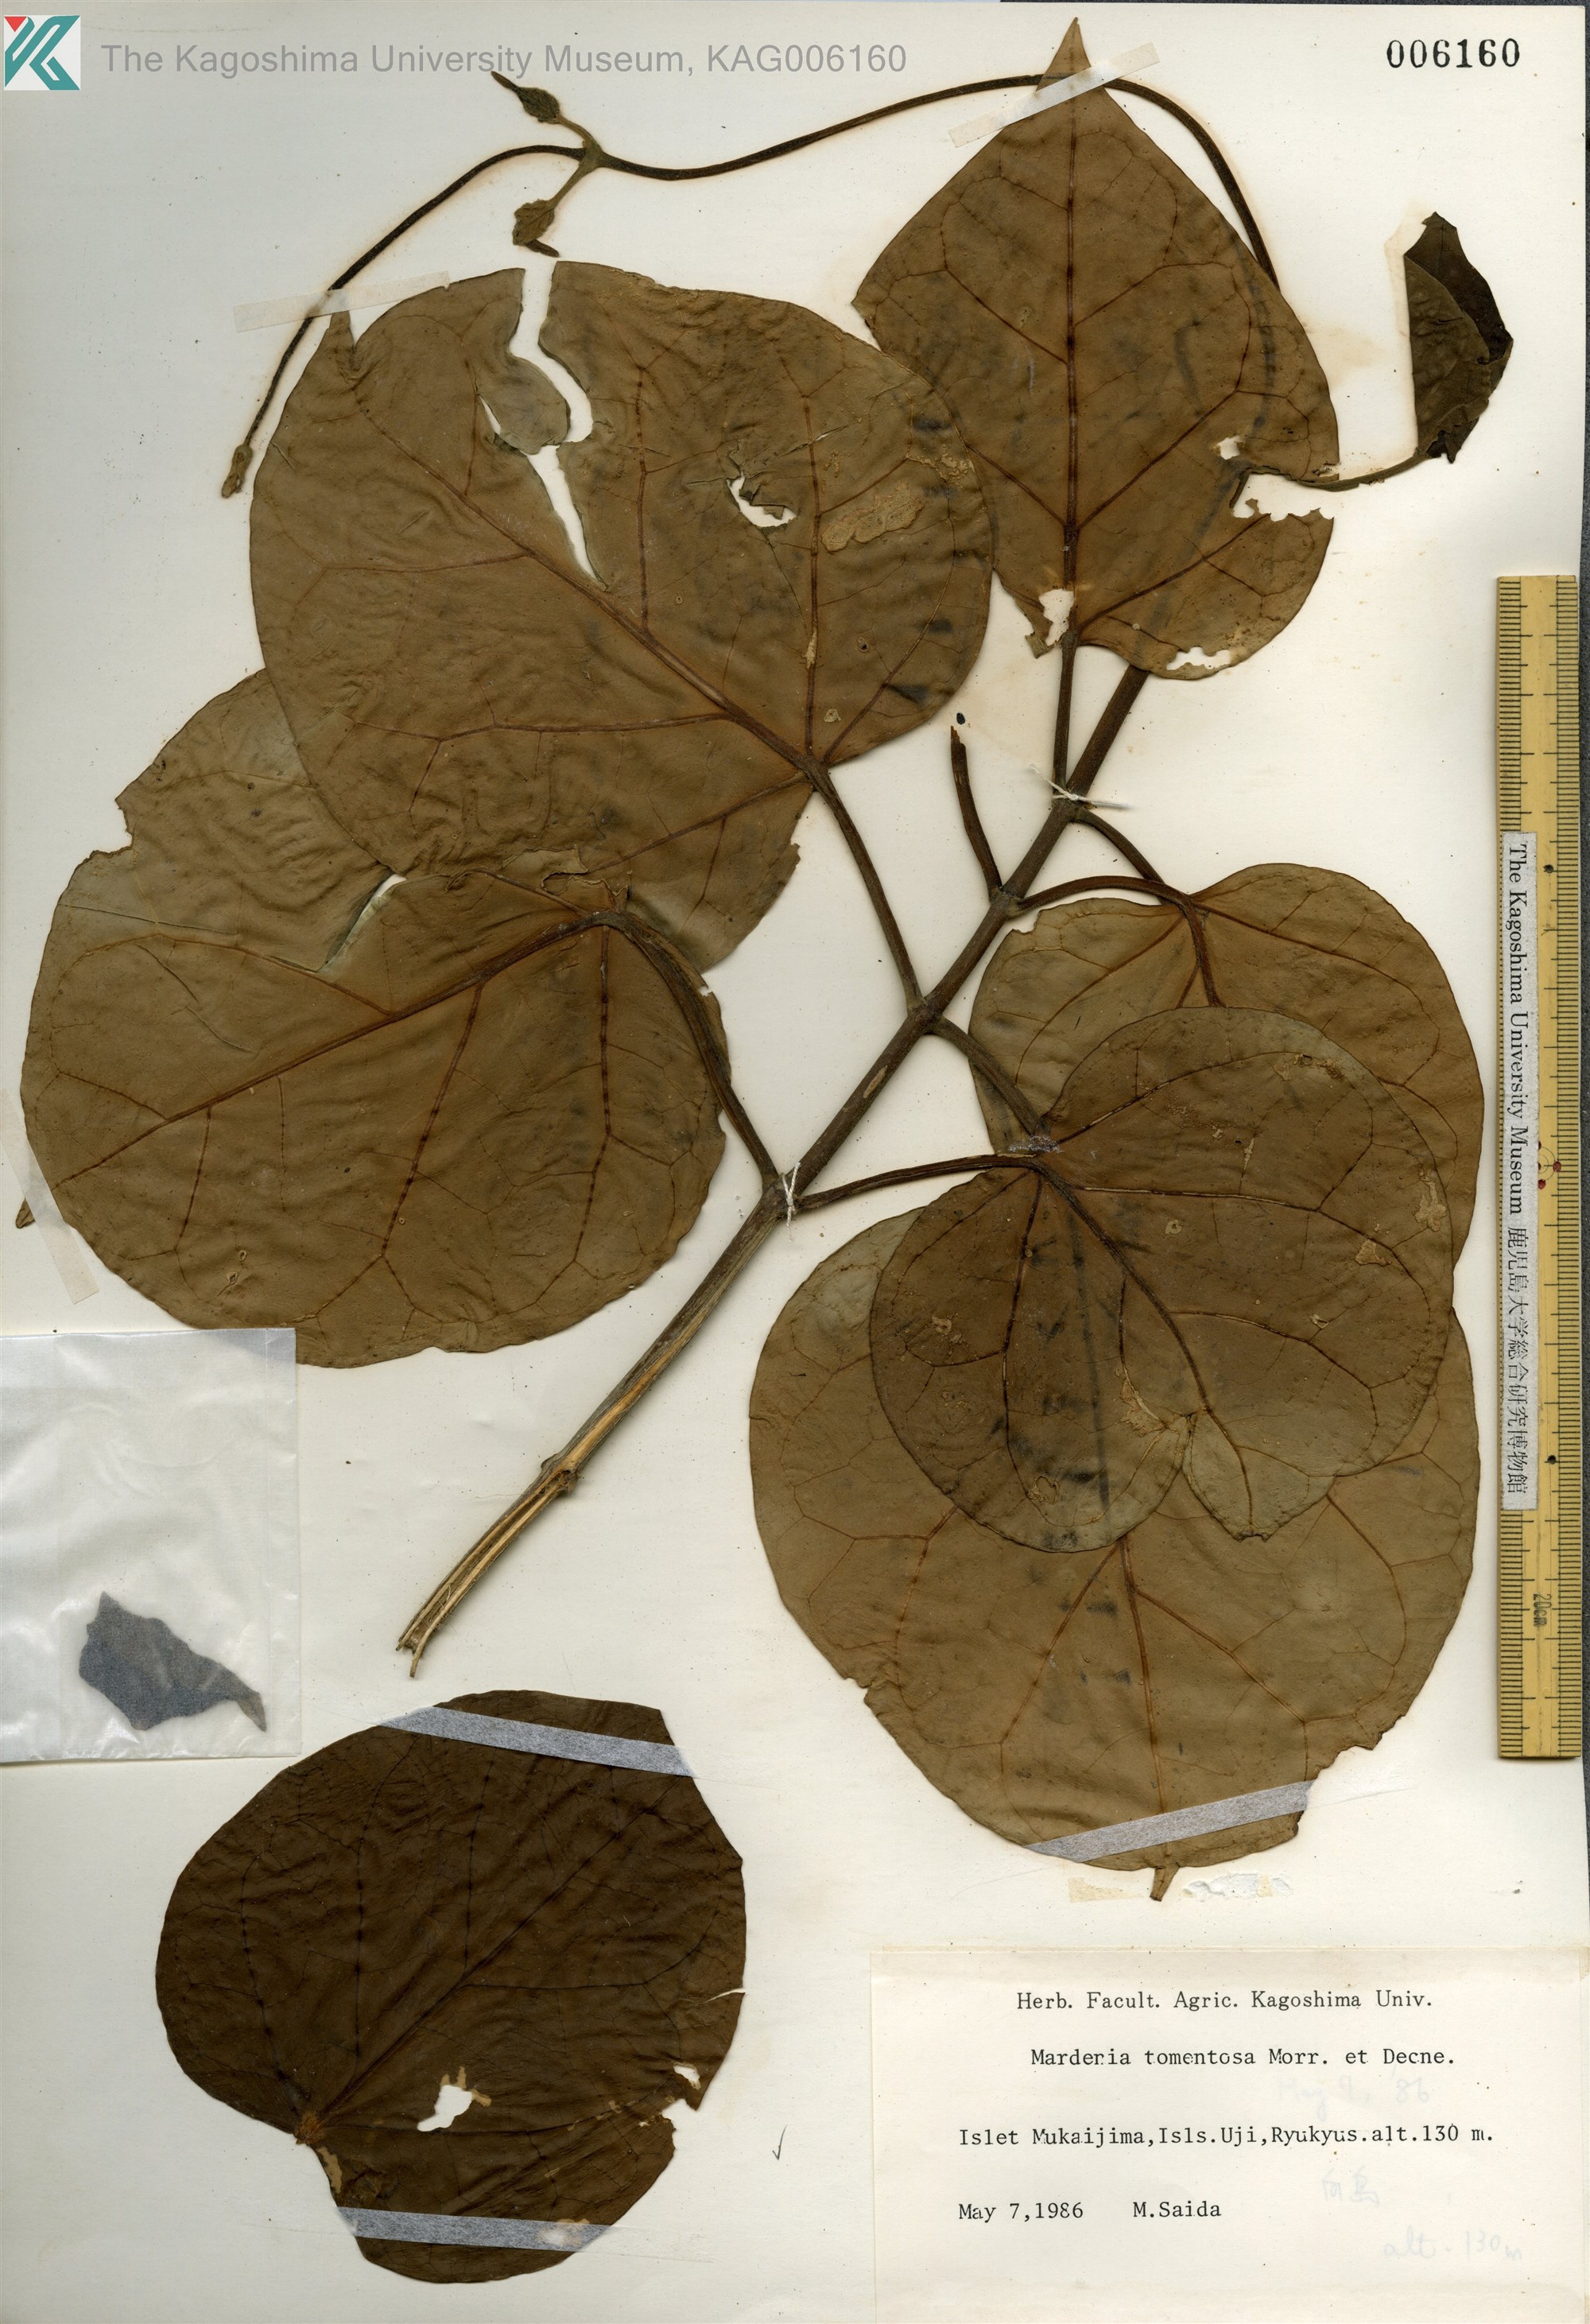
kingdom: Plantae
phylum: Tracheophyta
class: Magnoliopsida
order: Gentianales
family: Apocynaceae
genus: Sinomarsdenia
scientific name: Sinomarsdenia tomentosa
